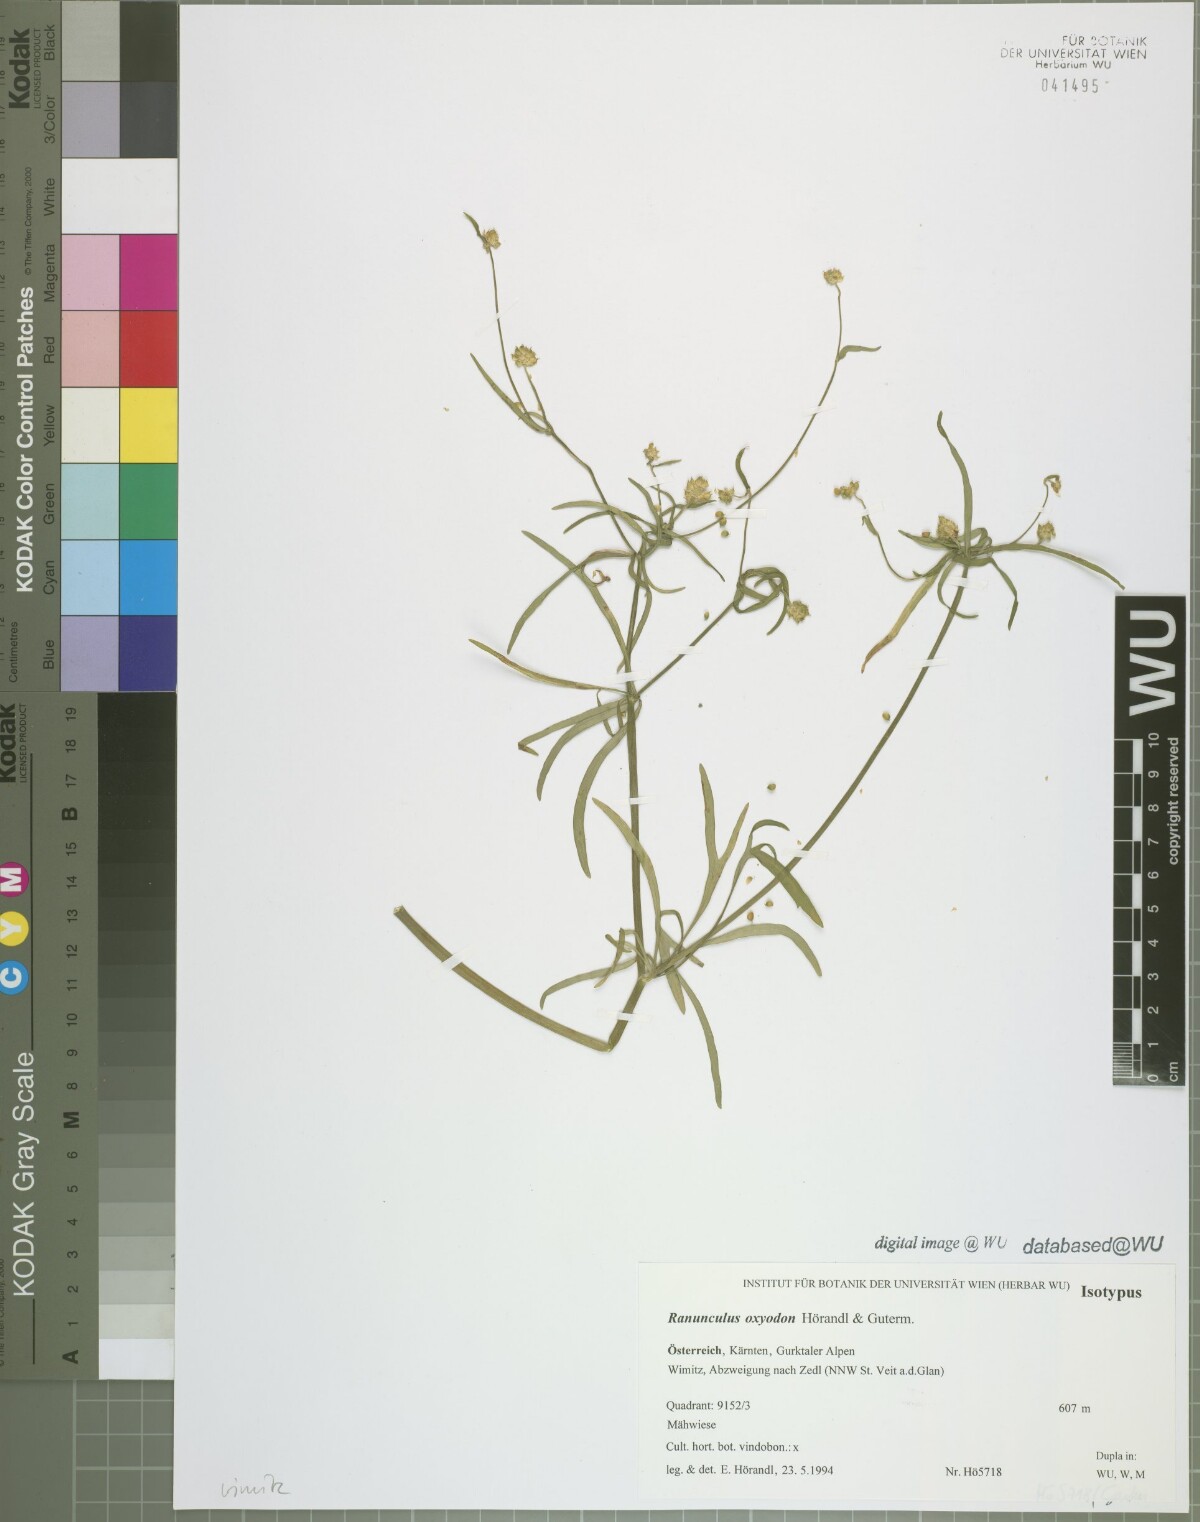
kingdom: Plantae
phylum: Tracheophyta
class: Magnoliopsida
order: Ranunculales
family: Ranunculaceae
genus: Ranunculus
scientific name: Ranunculus oxyodon
